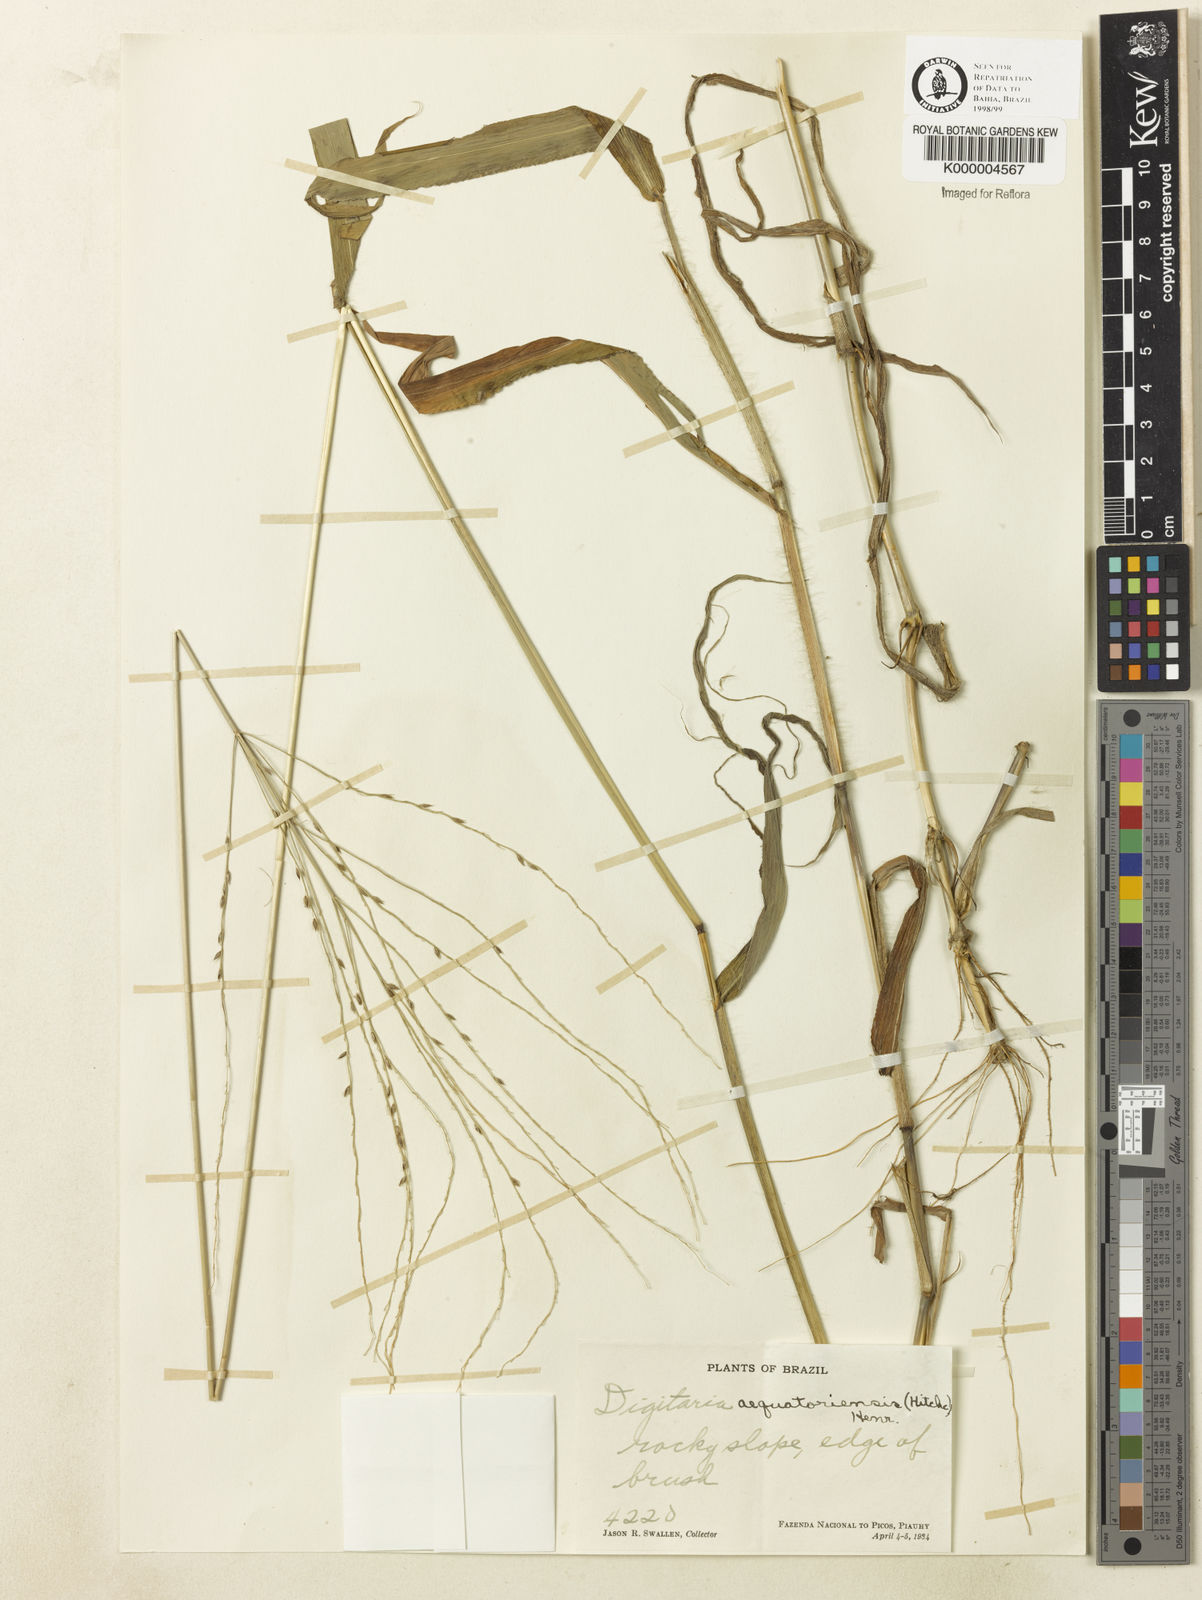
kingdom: Plantae
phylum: Tracheophyta
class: Liliopsida
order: Poales
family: Poaceae
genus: Digitaria
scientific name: Digitaria pittieri
